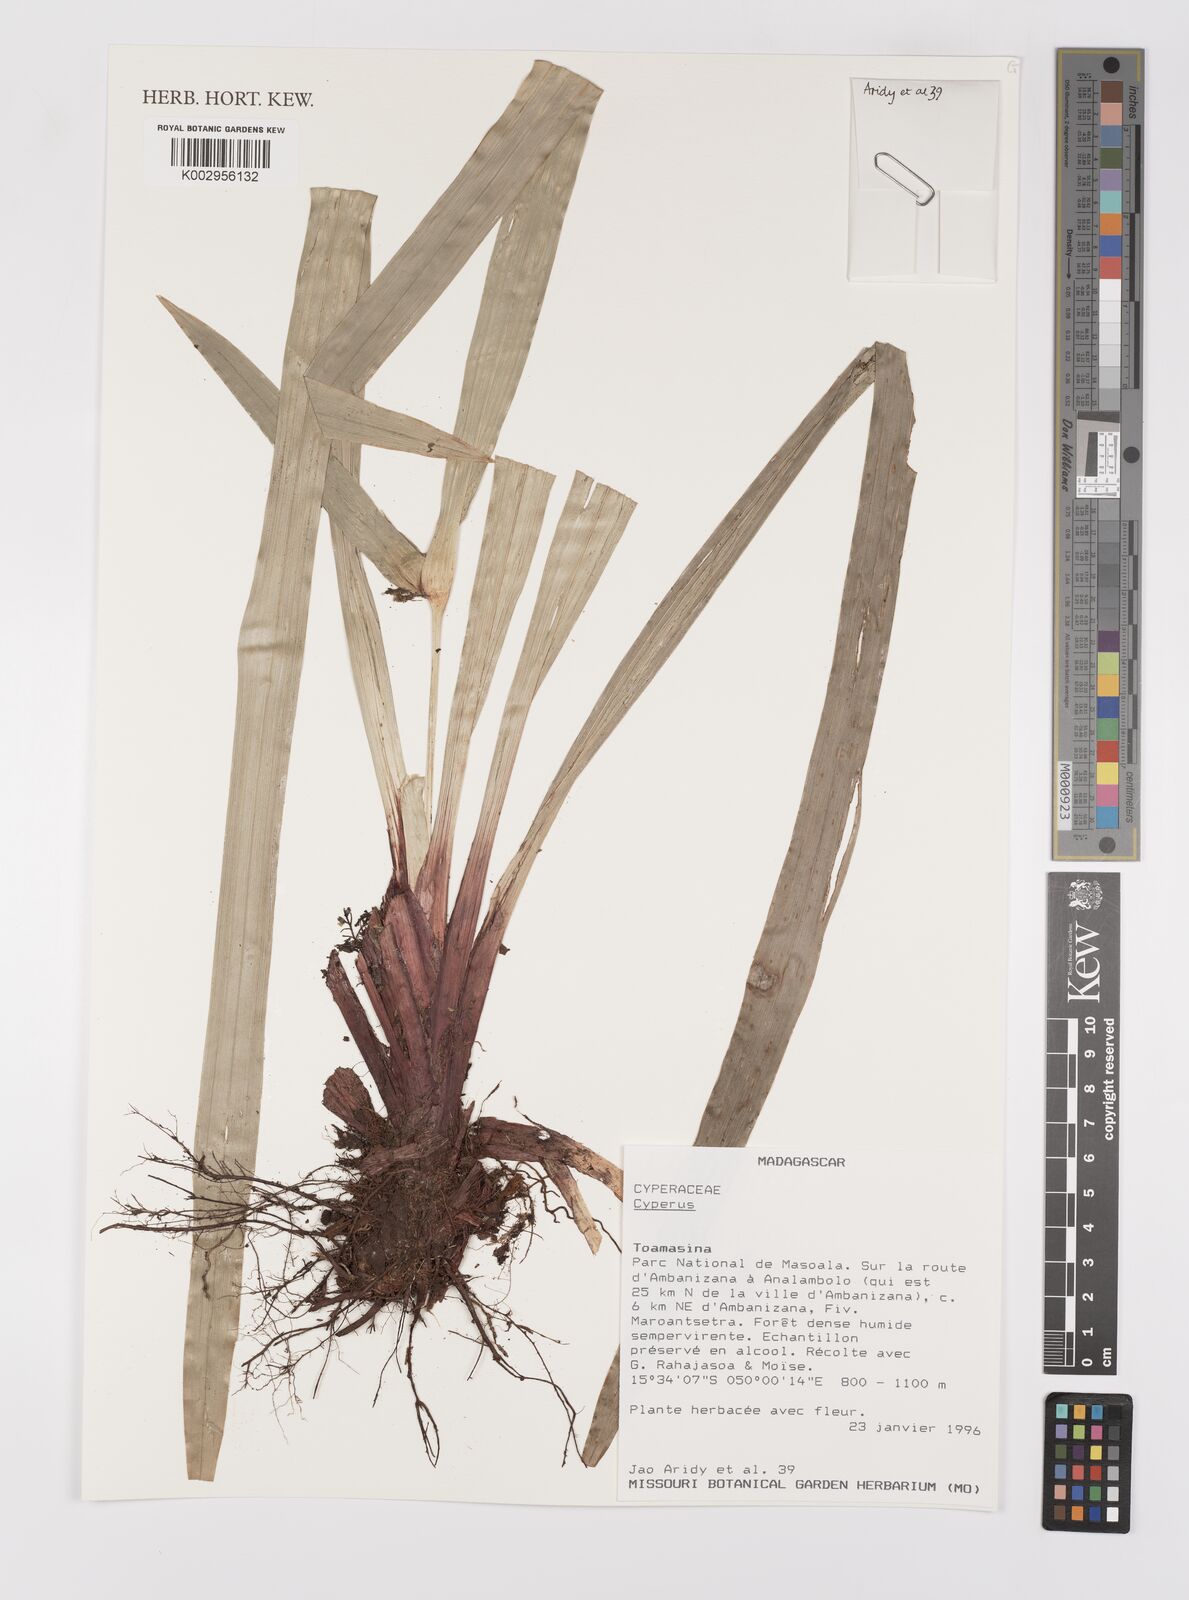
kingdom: Plantae
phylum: Tracheophyta
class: Liliopsida
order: Poales
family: Cyperaceae
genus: Cyperus
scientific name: Cyperus
